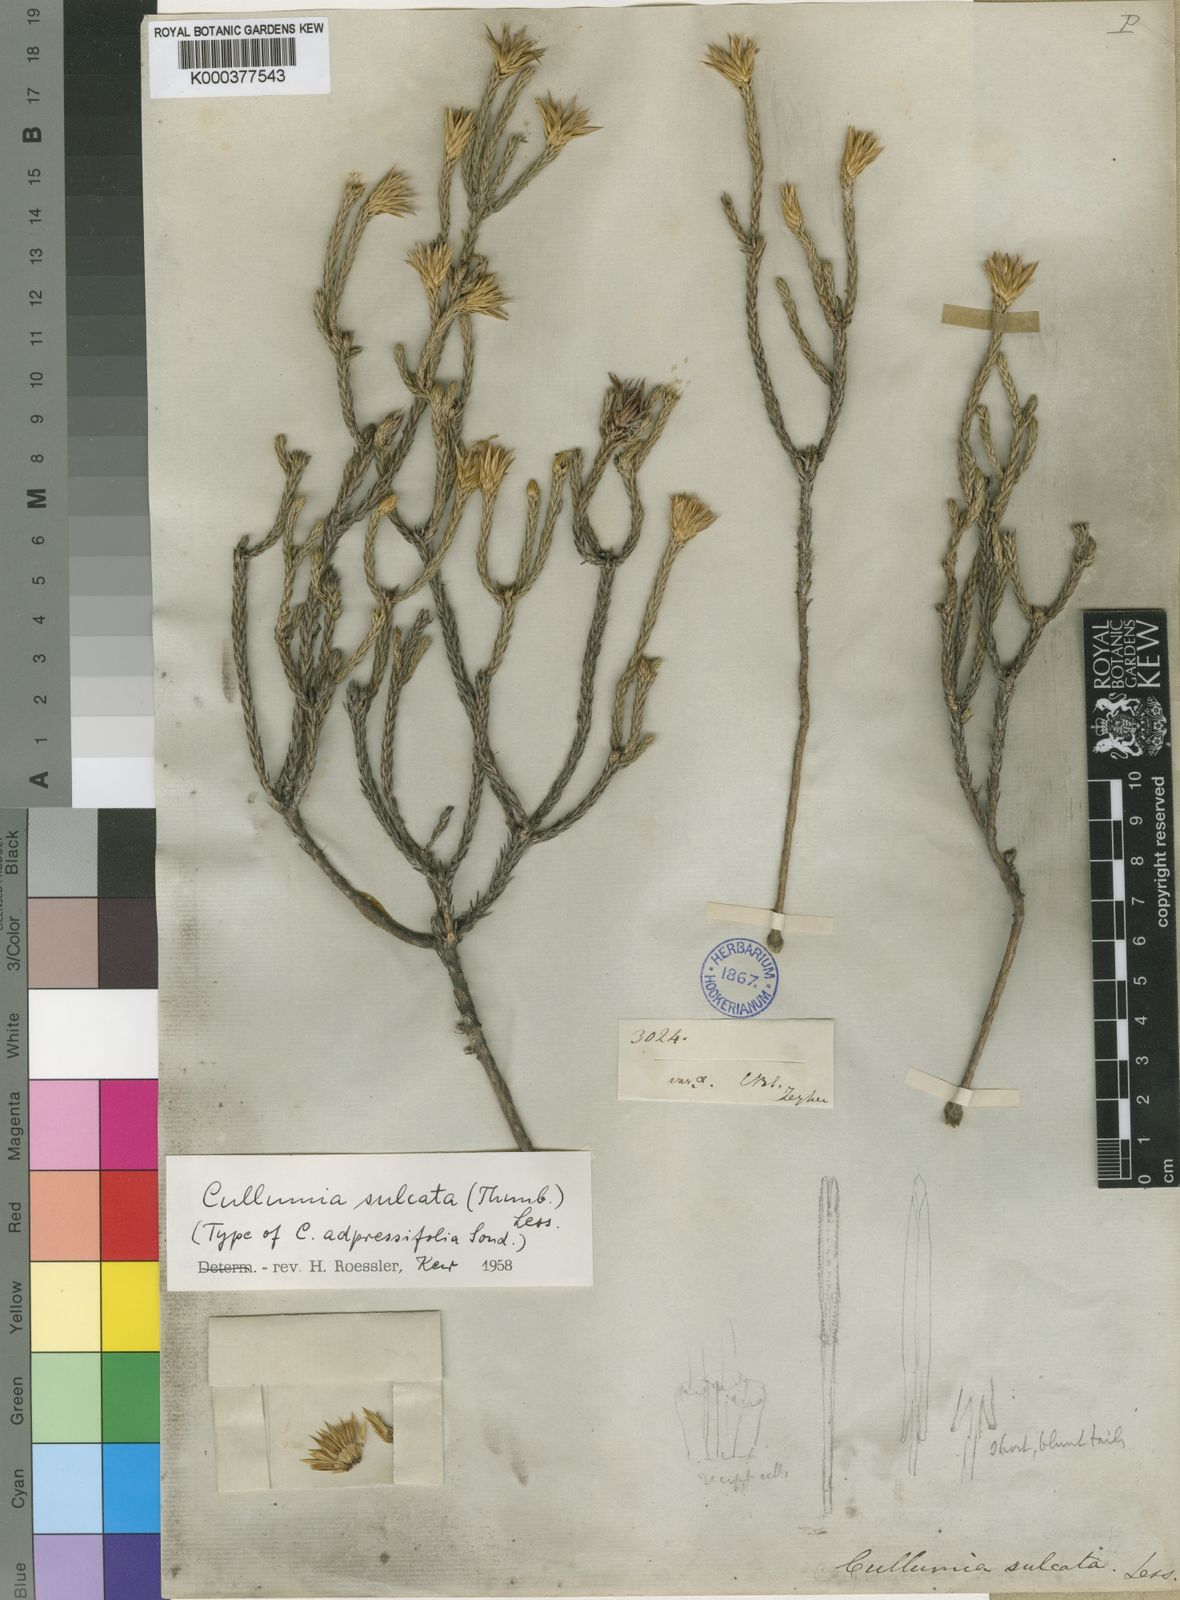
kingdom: Plantae
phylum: Tracheophyta
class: Magnoliopsida
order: Asterales
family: Asteraceae
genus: Cullumia
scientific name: Cullumia sulcata
